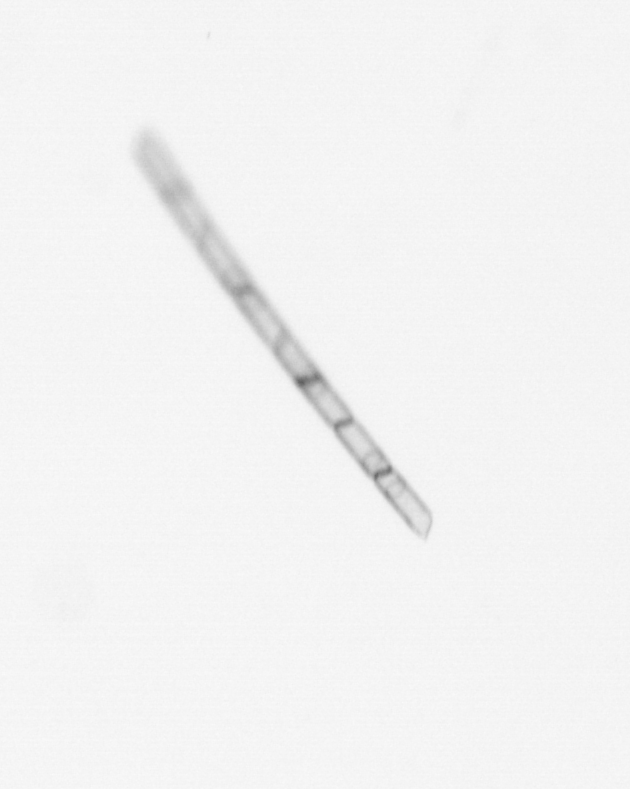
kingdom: Chromista
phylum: Ochrophyta
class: Bacillariophyceae
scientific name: Bacillariophyceae
